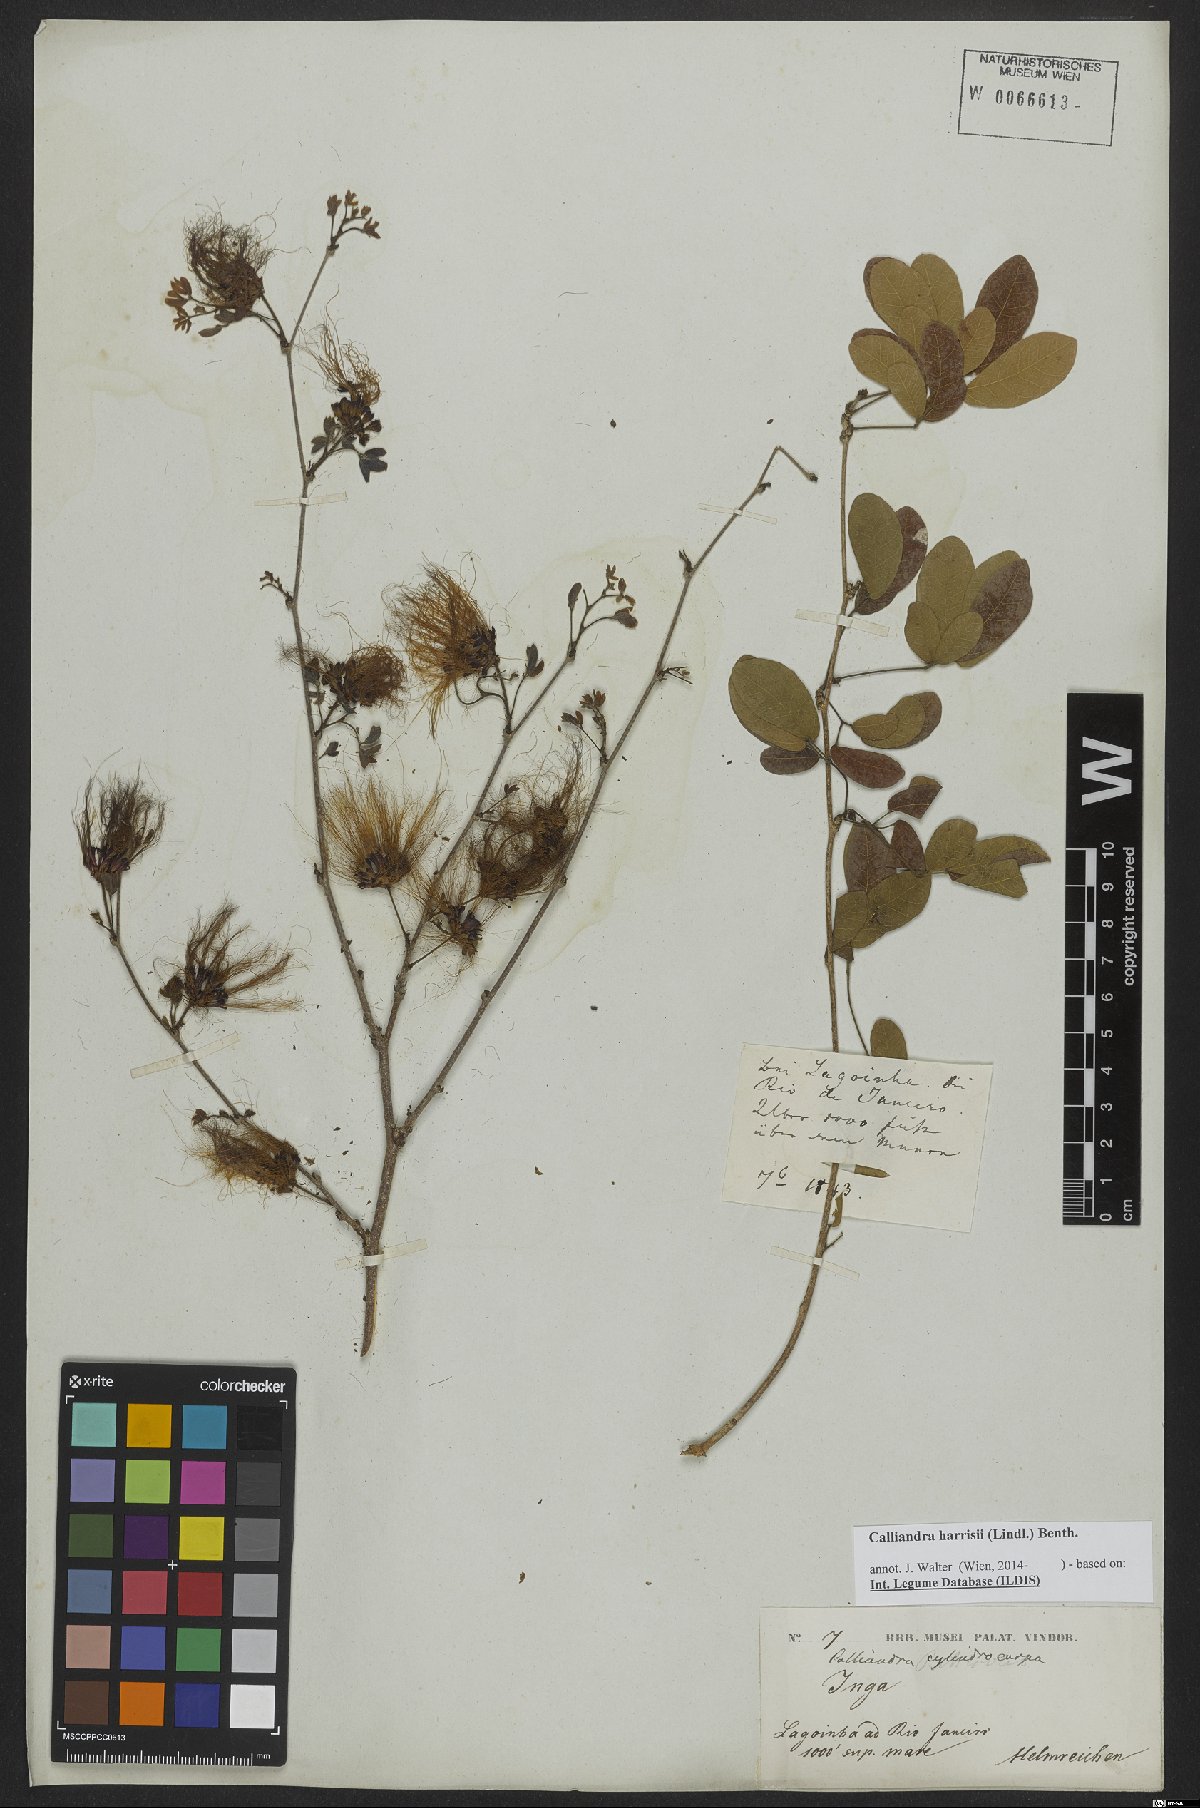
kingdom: Plantae
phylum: Tracheophyta
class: Magnoliopsida
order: Fabales
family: Fabaceae
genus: Calliandra
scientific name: Calliandra depauperata
